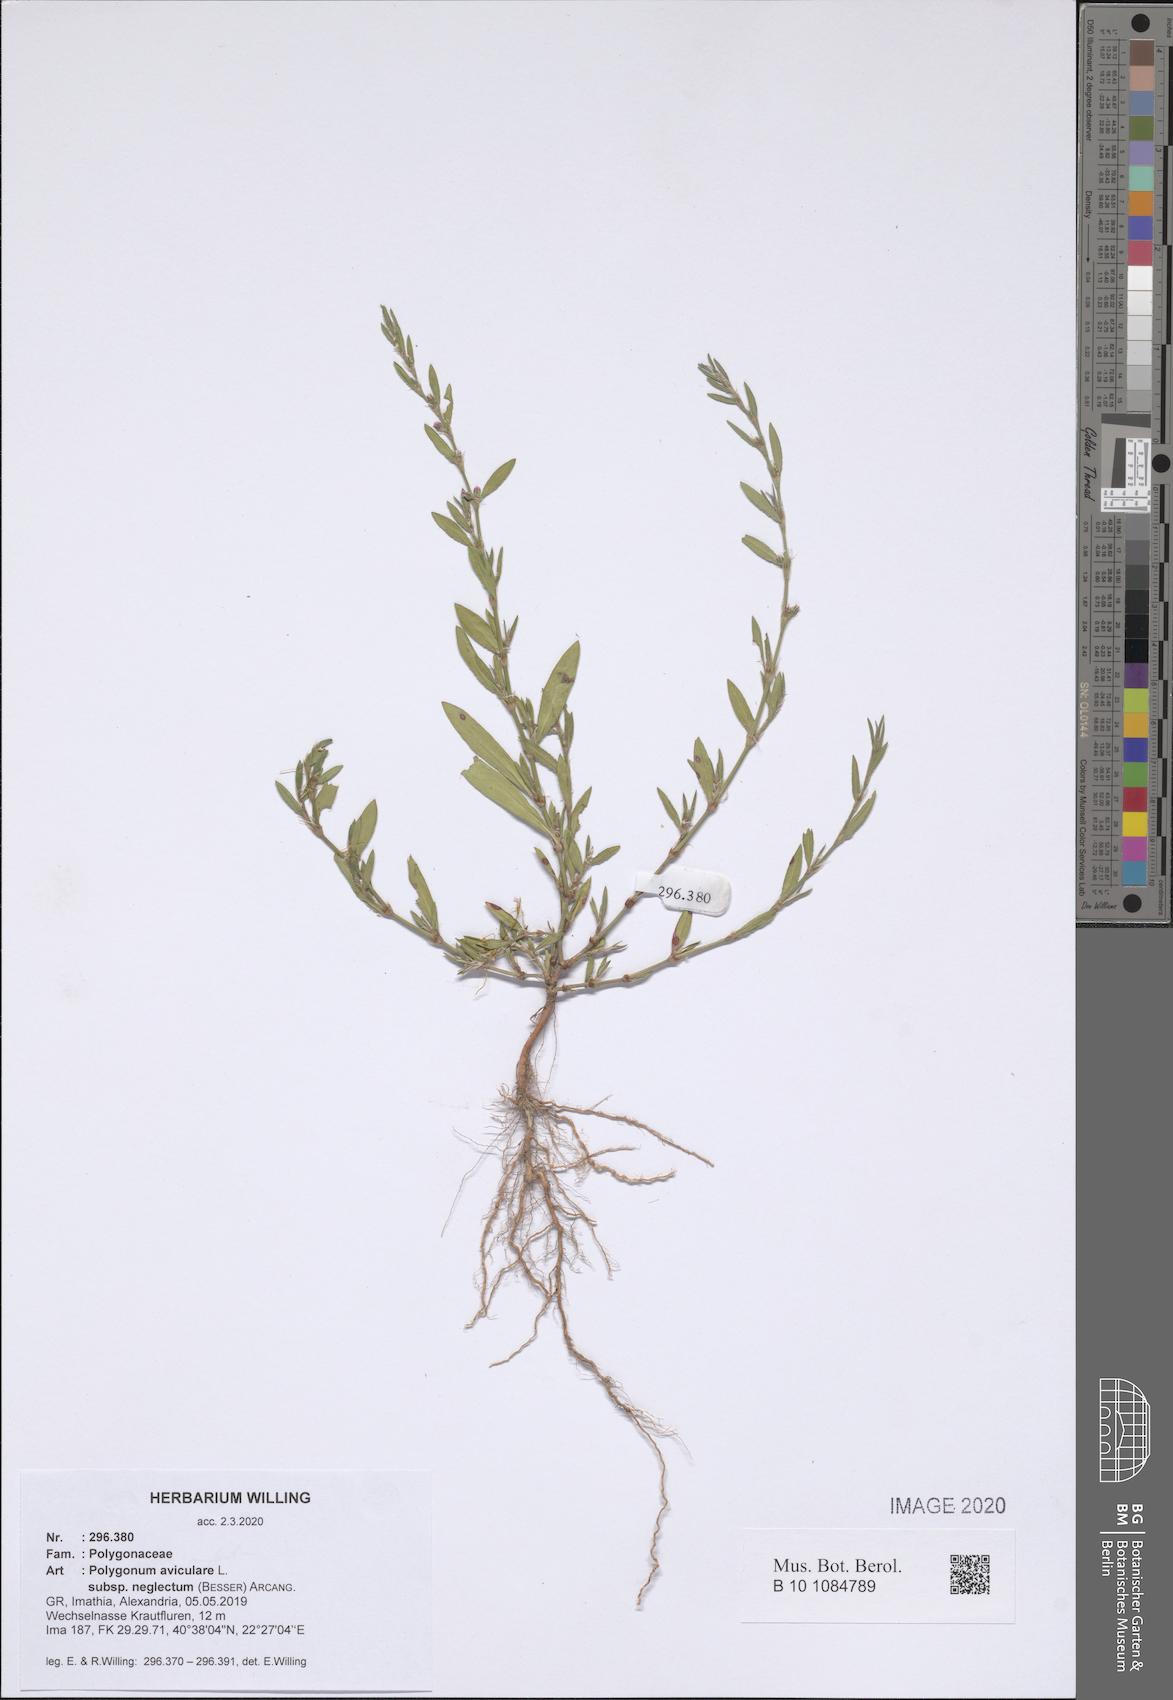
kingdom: Plantae
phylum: Tracheophyta
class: Magnoliopsida
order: Caryophyllales
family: Polygonaceae
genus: Polygonum
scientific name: Polygonum aviculare
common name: Prostrate knotweed
